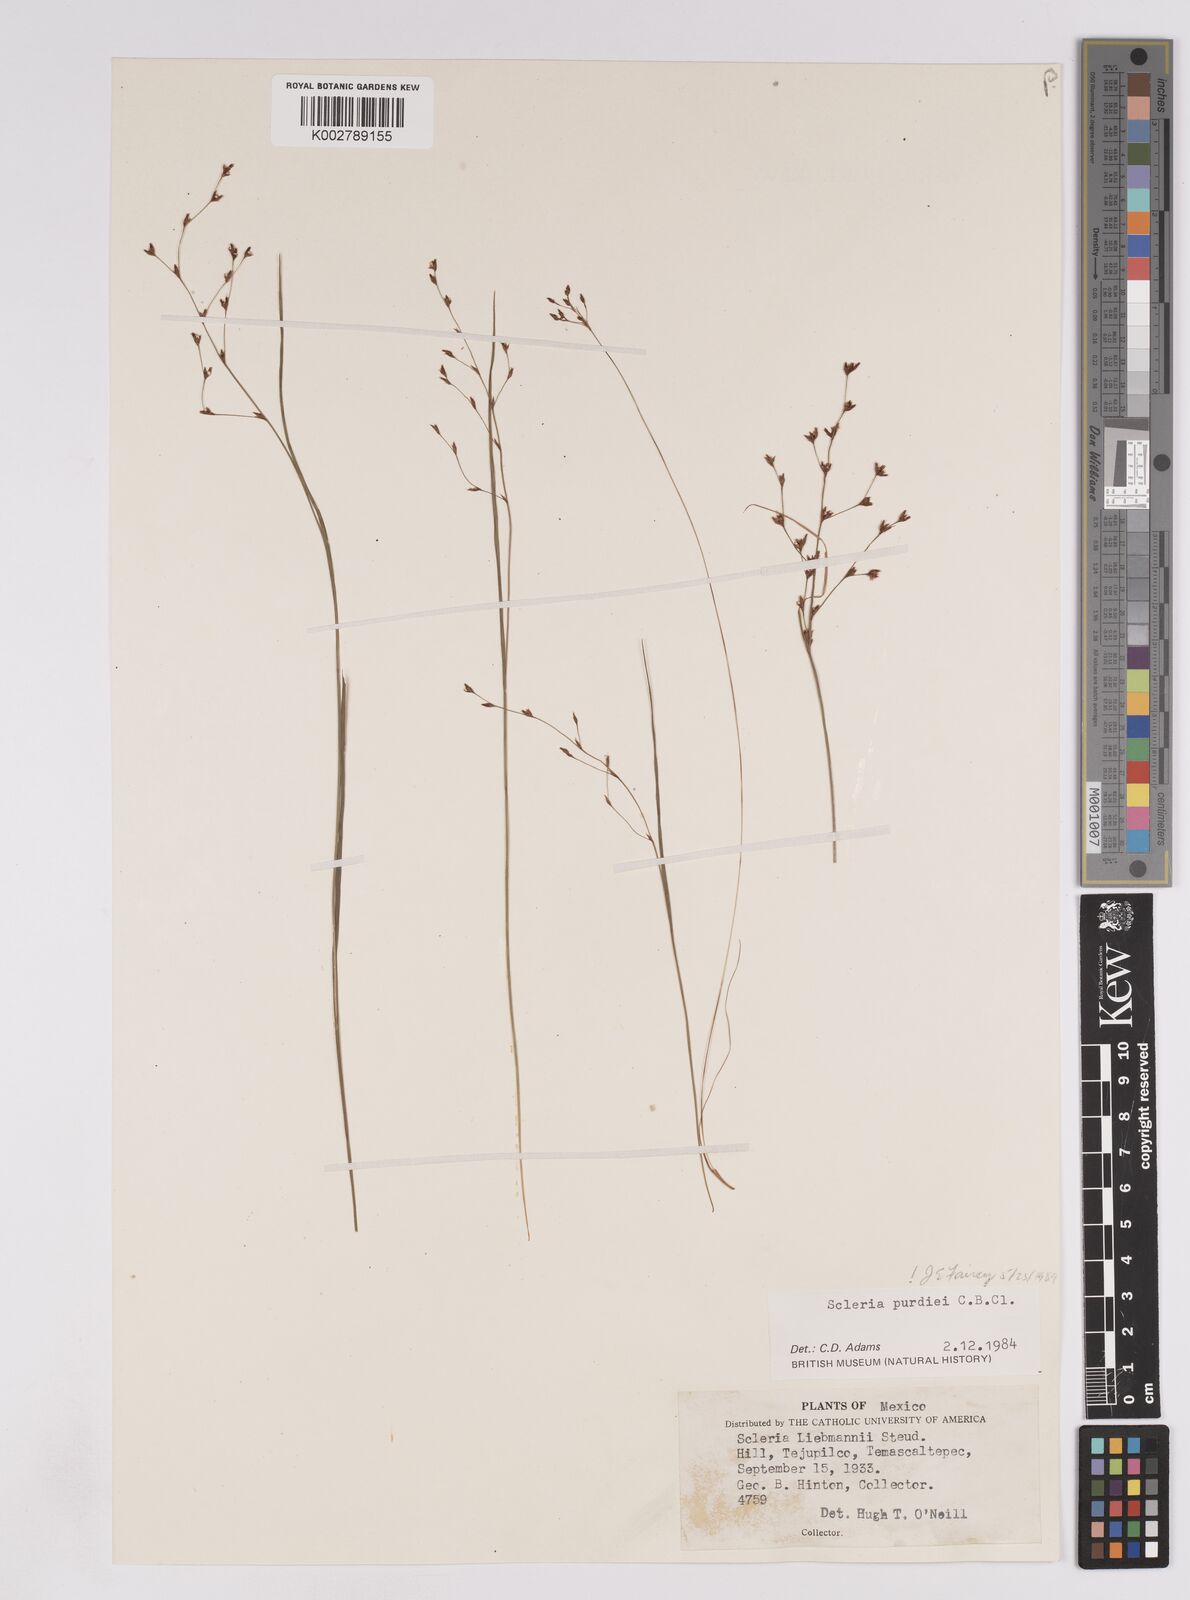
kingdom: Plantae
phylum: Tracheophyta
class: Liliopsida
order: Poales
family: Cyperaceae
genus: Scleria
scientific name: Scleria purdiei
